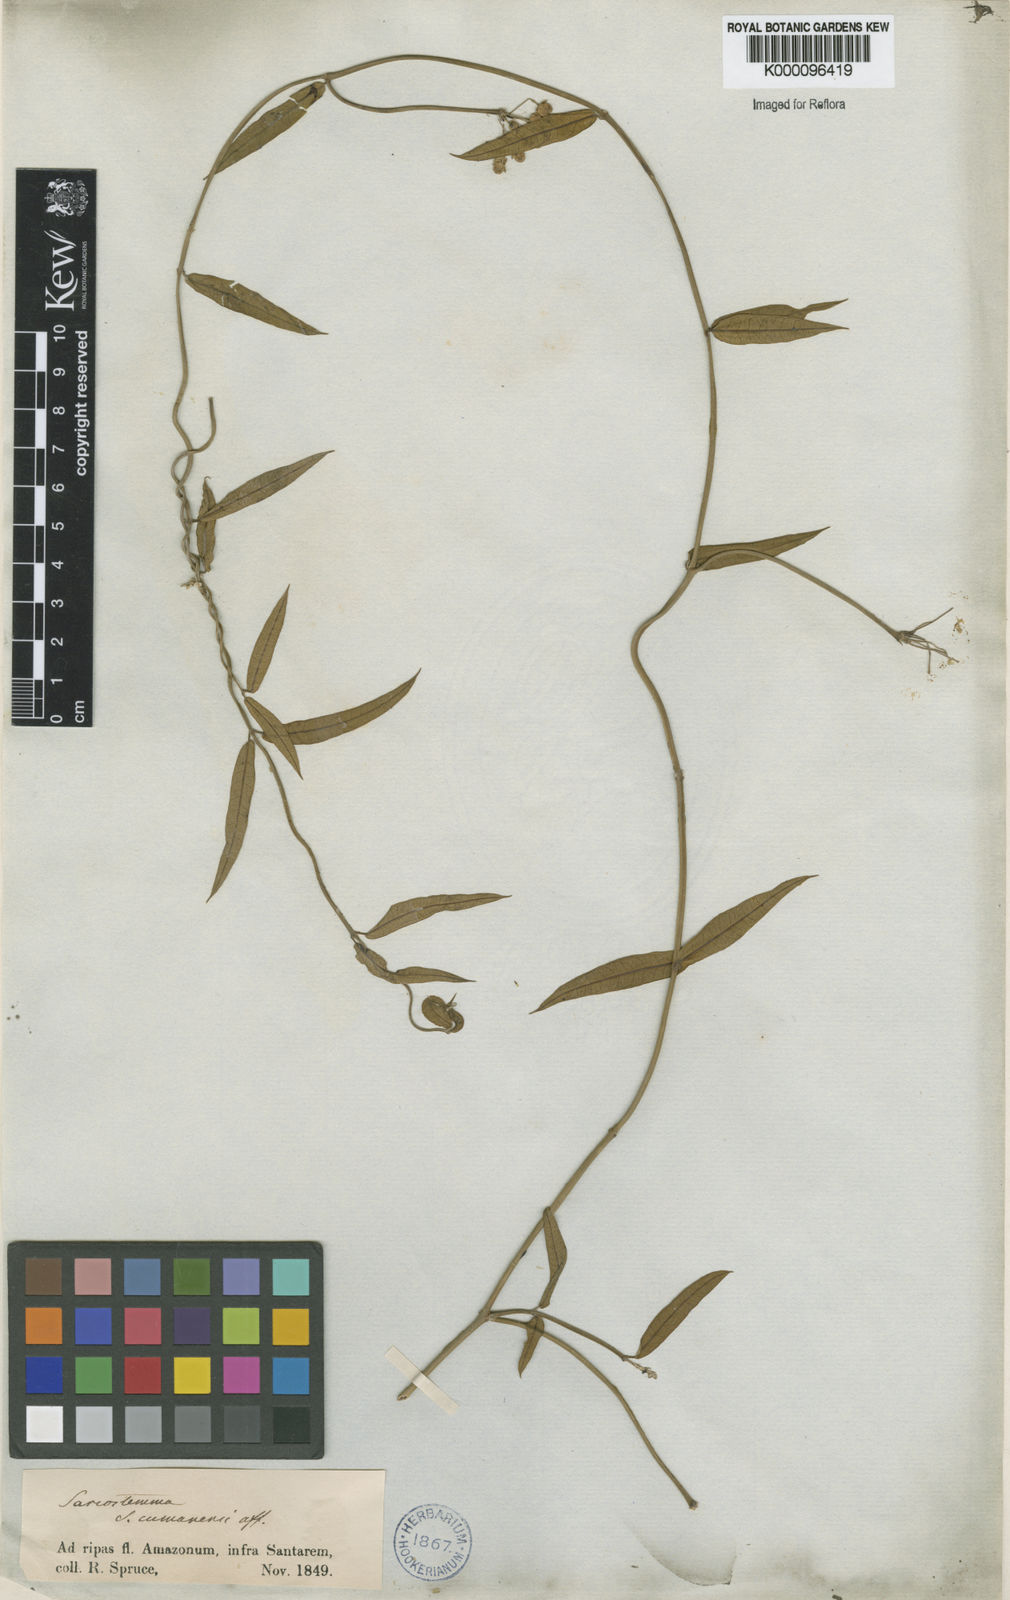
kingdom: Plantae
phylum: Tracheophyta
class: Magnoliopsida
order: Gentianales
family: Apocynaceae
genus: Funastrum
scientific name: Funastrum clausum
